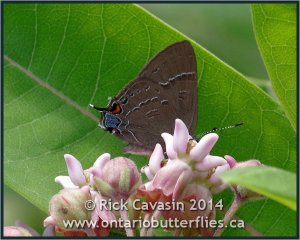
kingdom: Animalia
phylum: Arthropoda
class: Insecta
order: Lepidoptera
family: Lycaenidae
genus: Satyrium
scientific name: Satyrium calanus
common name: Banded Hairstreak
